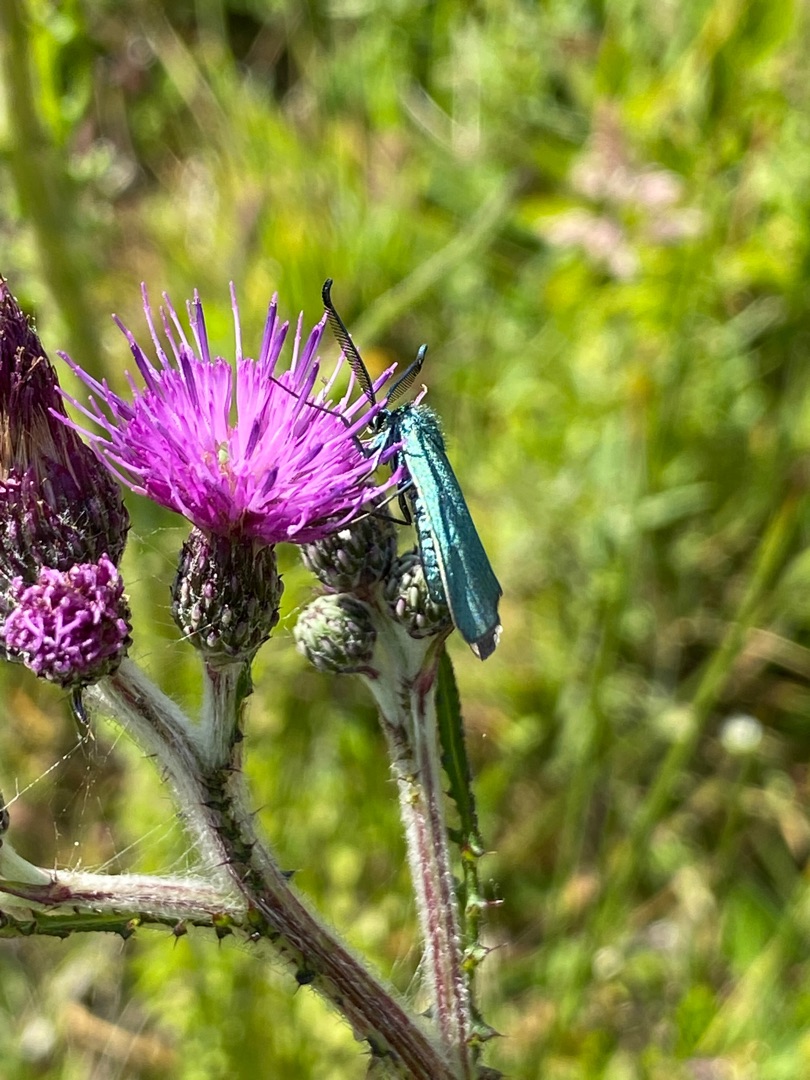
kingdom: Animalia
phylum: Arthropoda
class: Insecta
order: Lepidoptera
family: Zygaenidae
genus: Adscita
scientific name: Adscita statices
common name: Metalvinge
